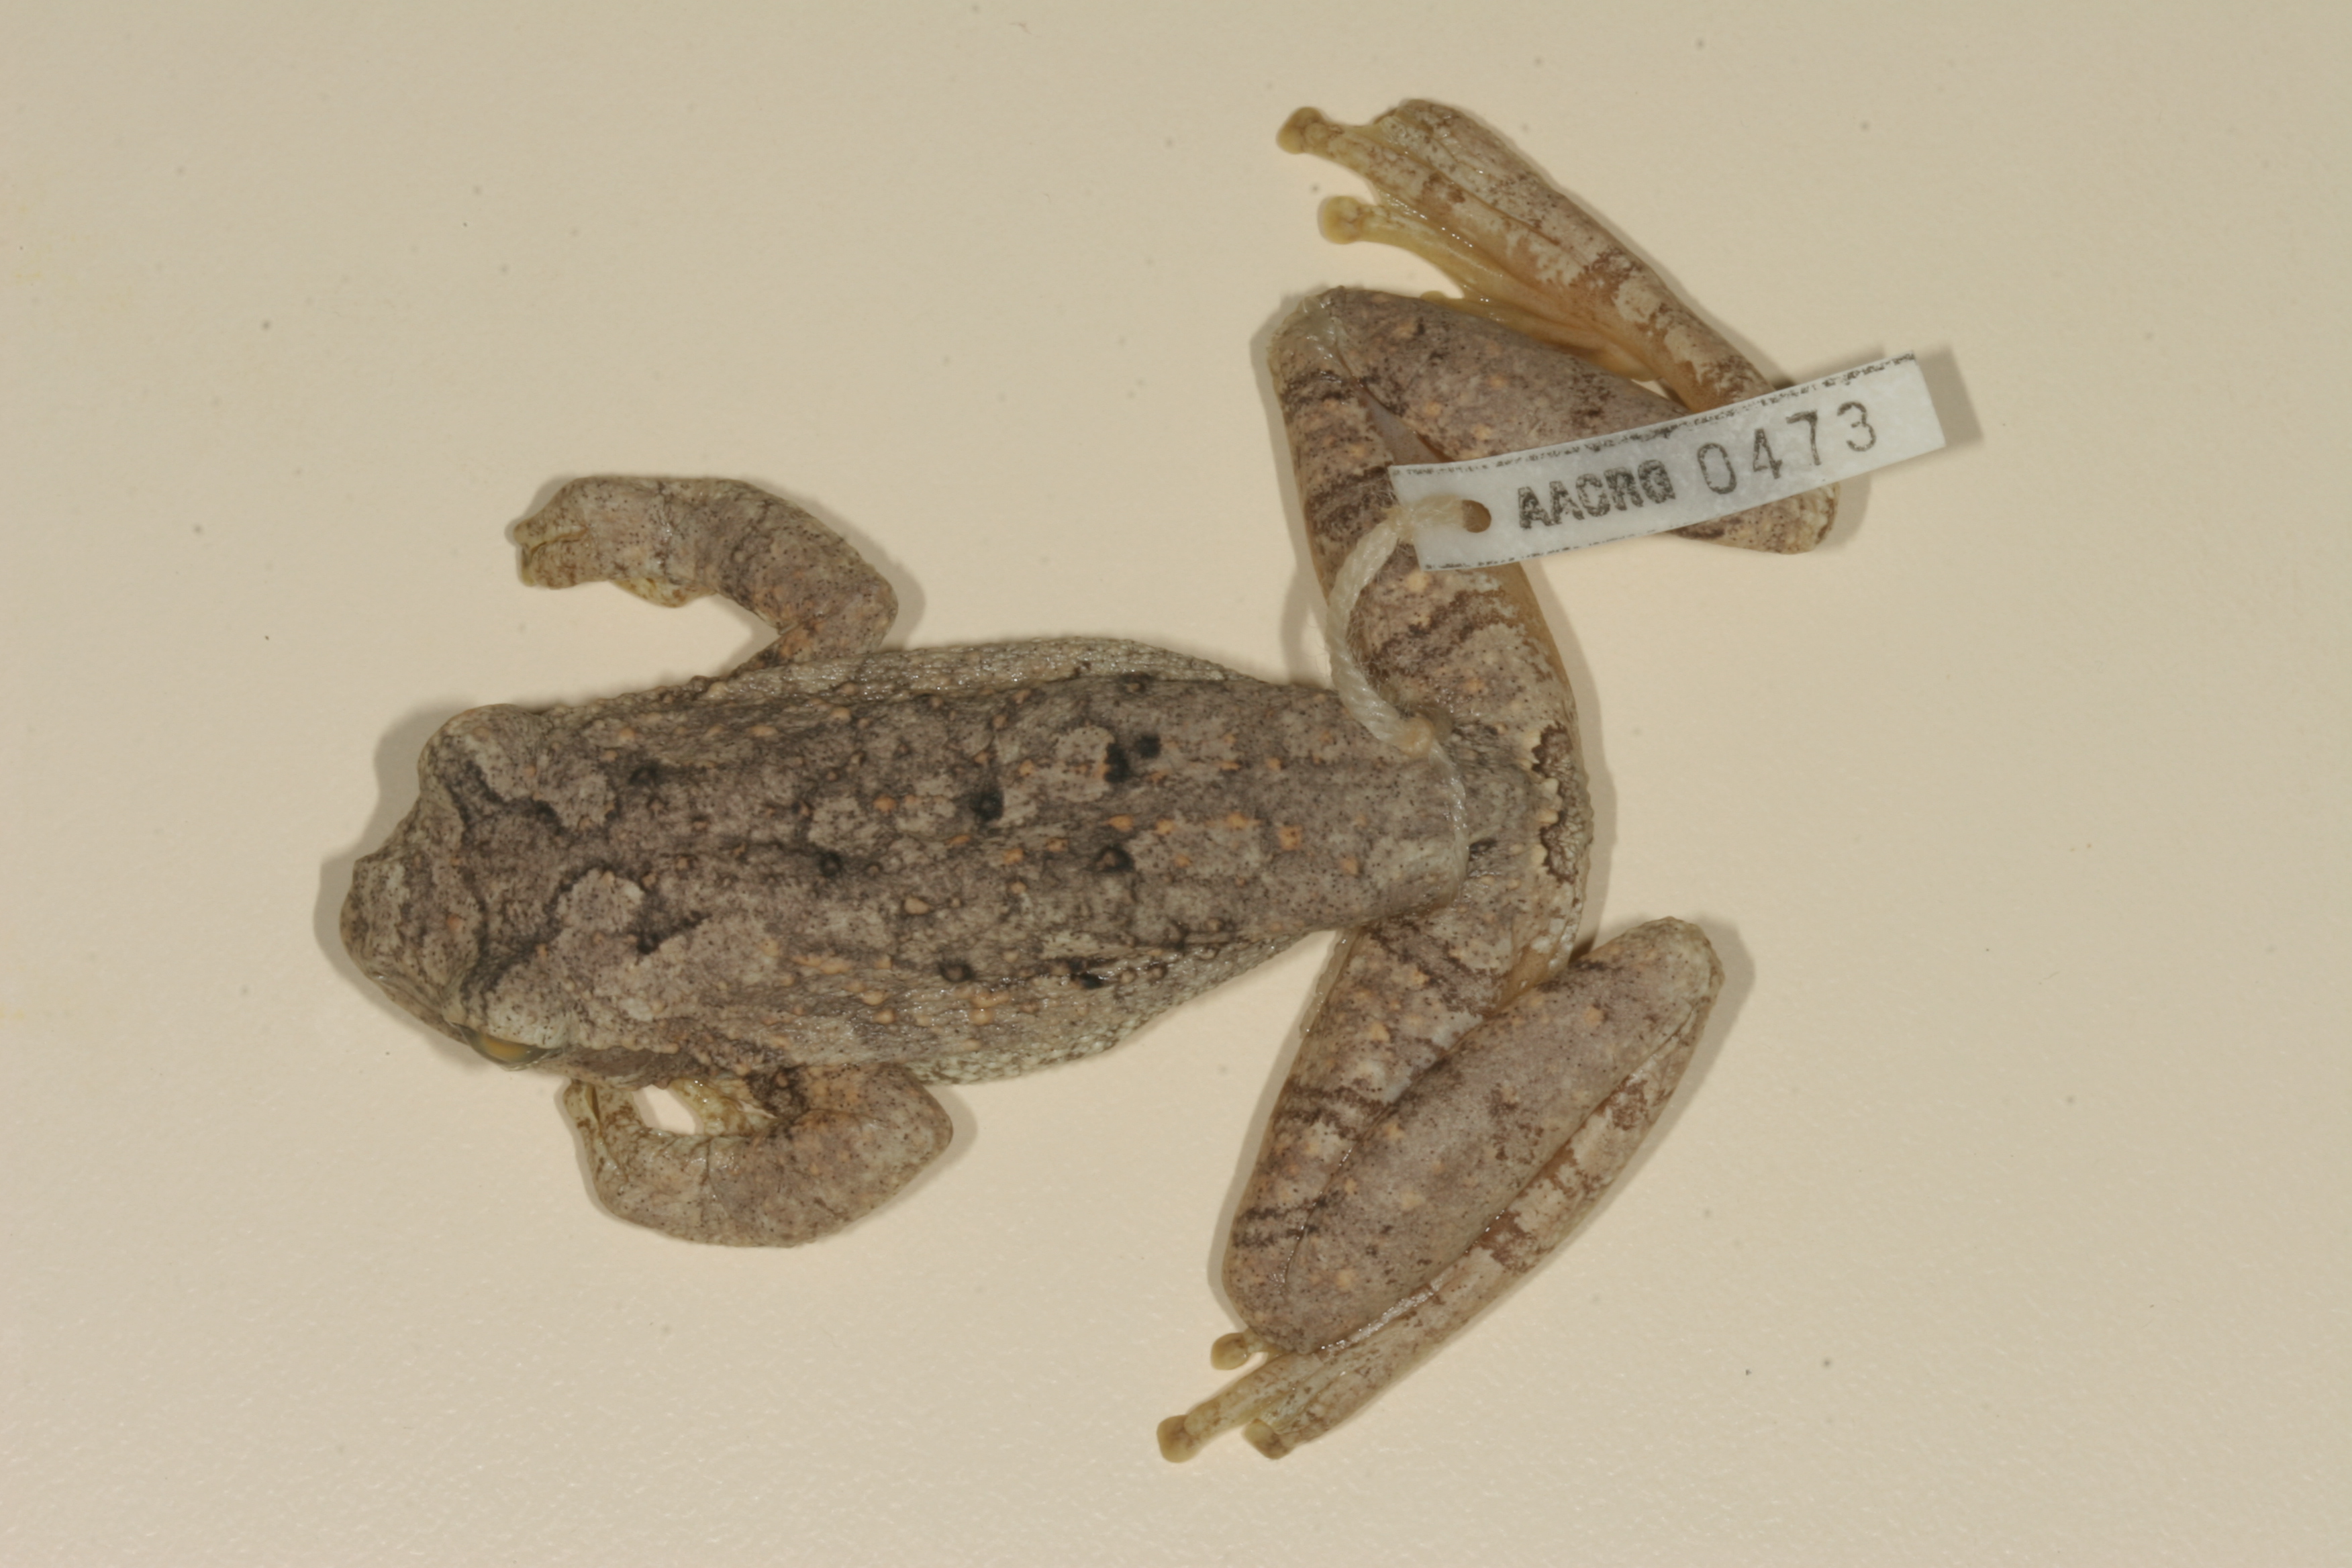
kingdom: Animalia
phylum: Chordata
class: Amphibia
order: Anura
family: Rhacophoridae
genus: Chiromantis
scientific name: Chiromantis xerampelina
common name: African gray treefrog
